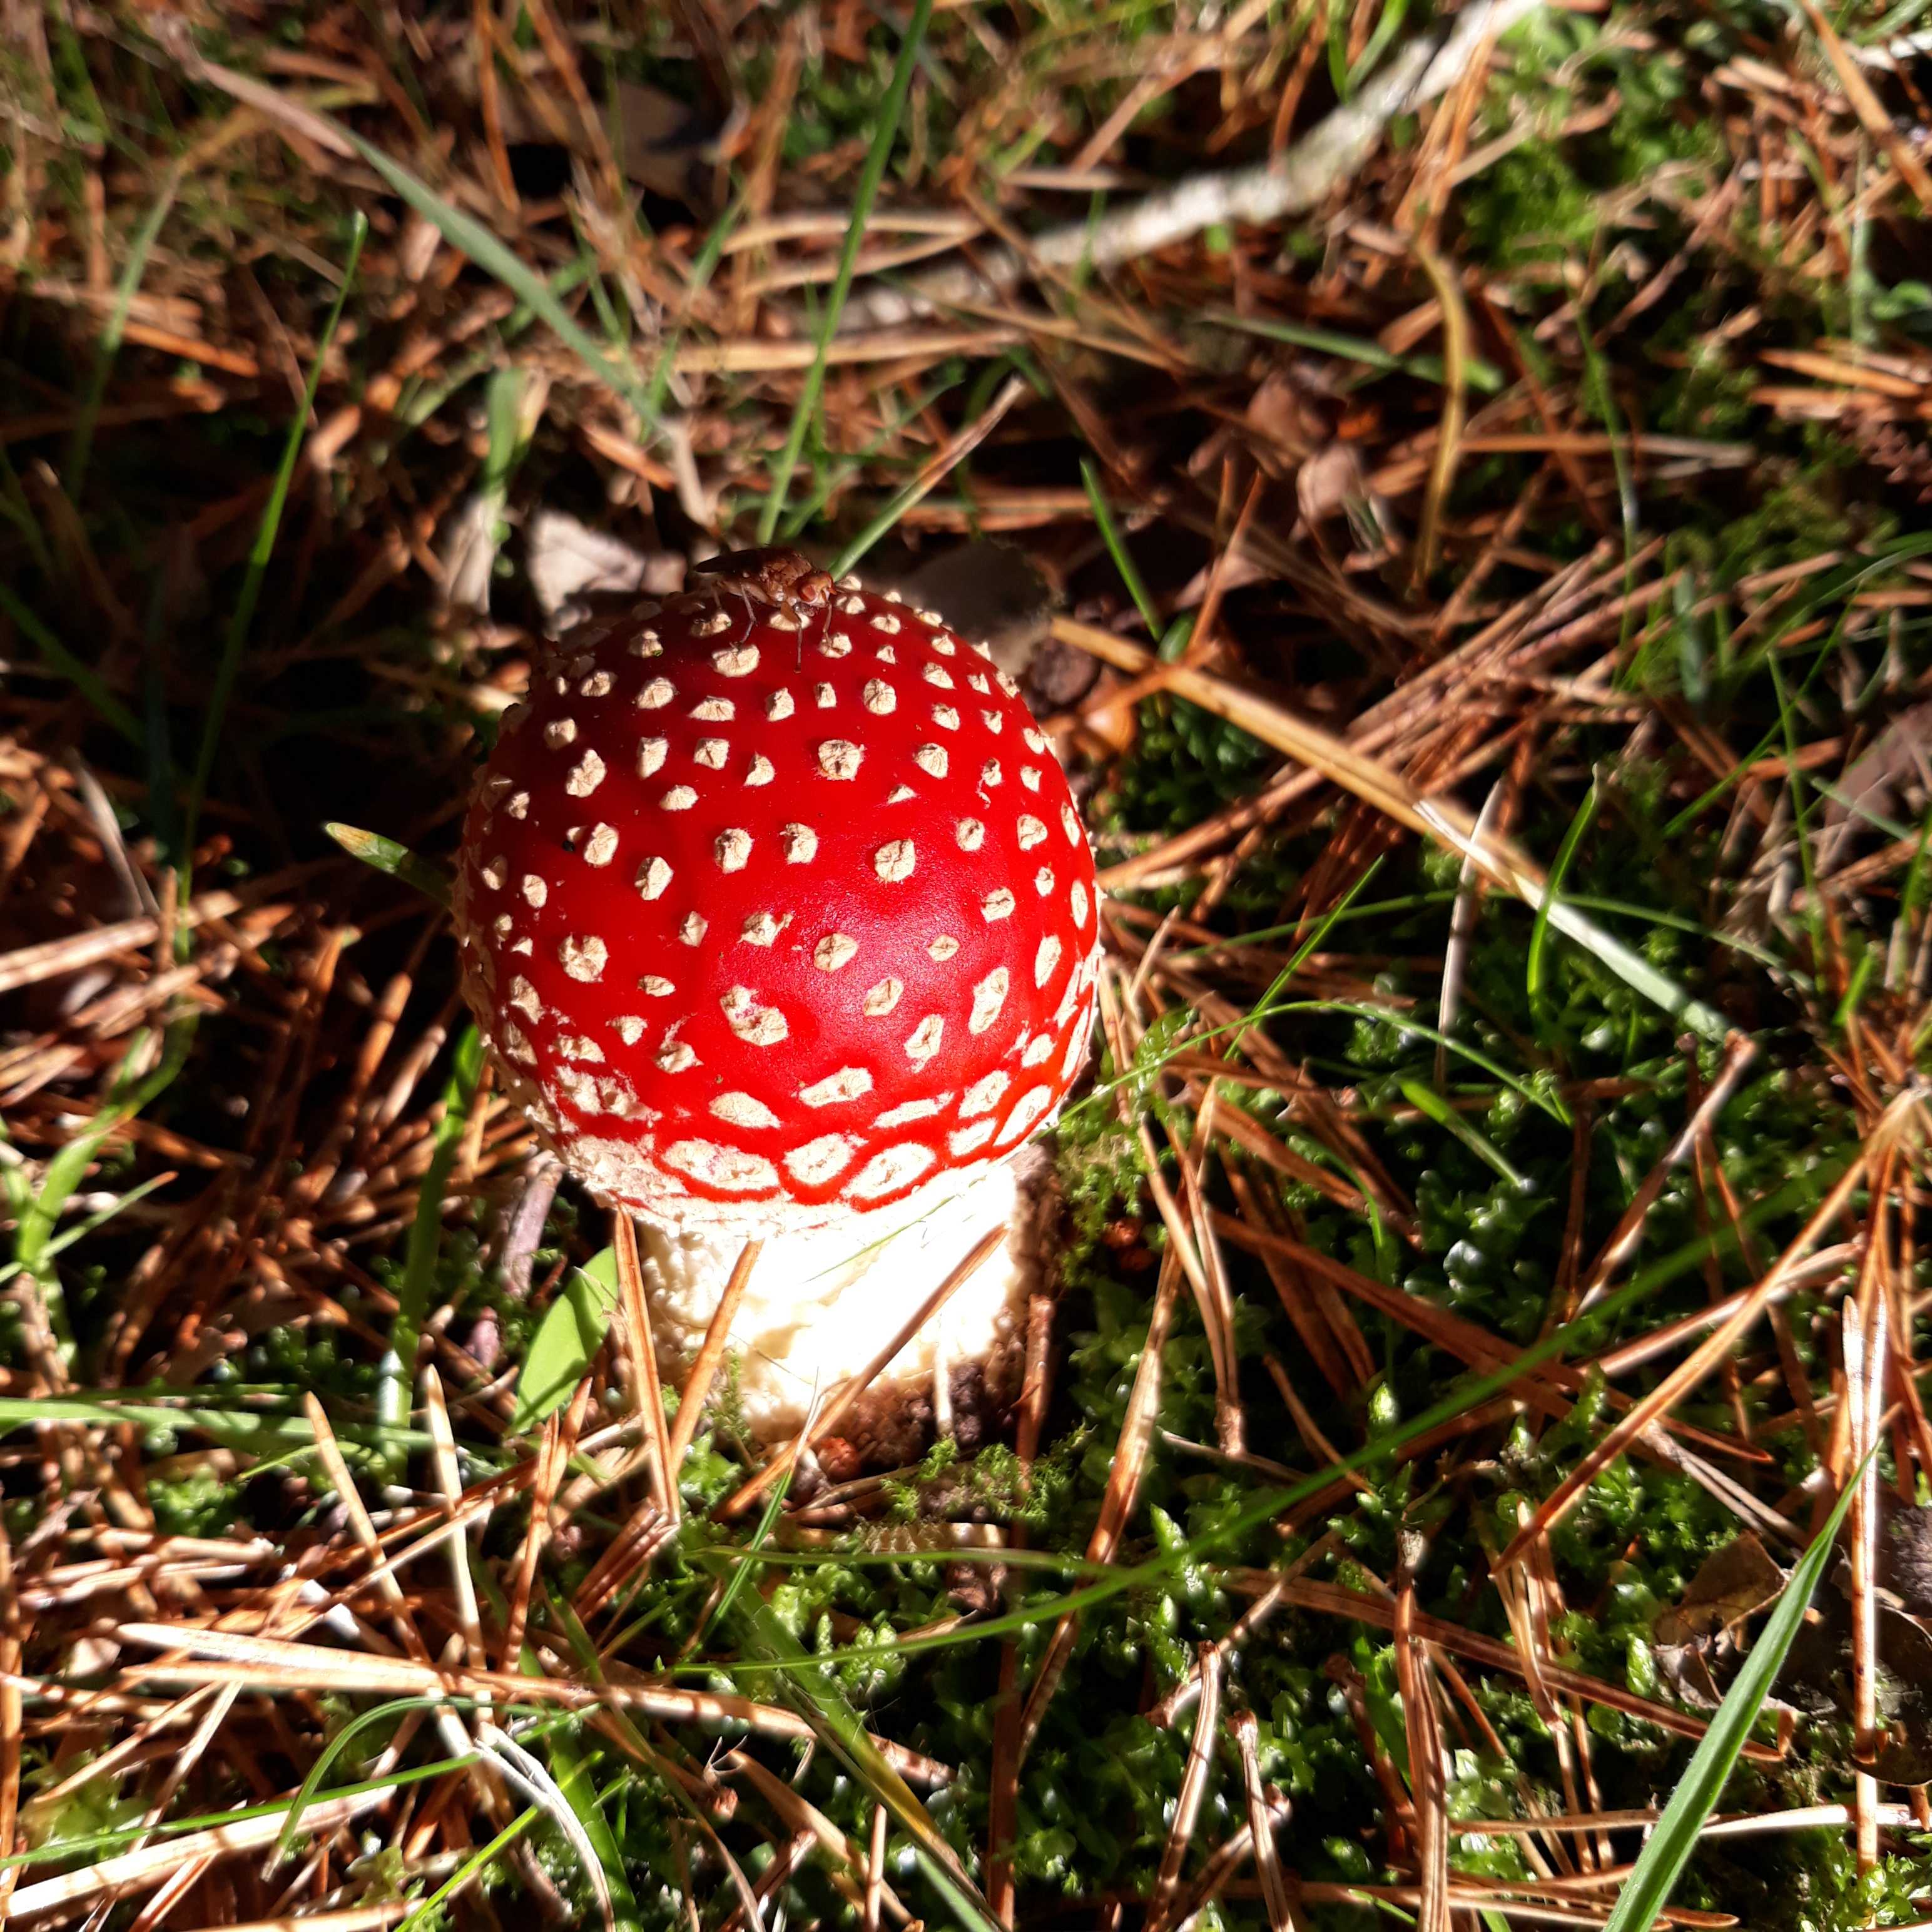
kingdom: Fungi
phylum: Basidiomycota
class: Agaricomycetes
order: Agaricales
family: Amanitaceae
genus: Amanita
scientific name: Amanita muscaria
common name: rød fluesvamp
